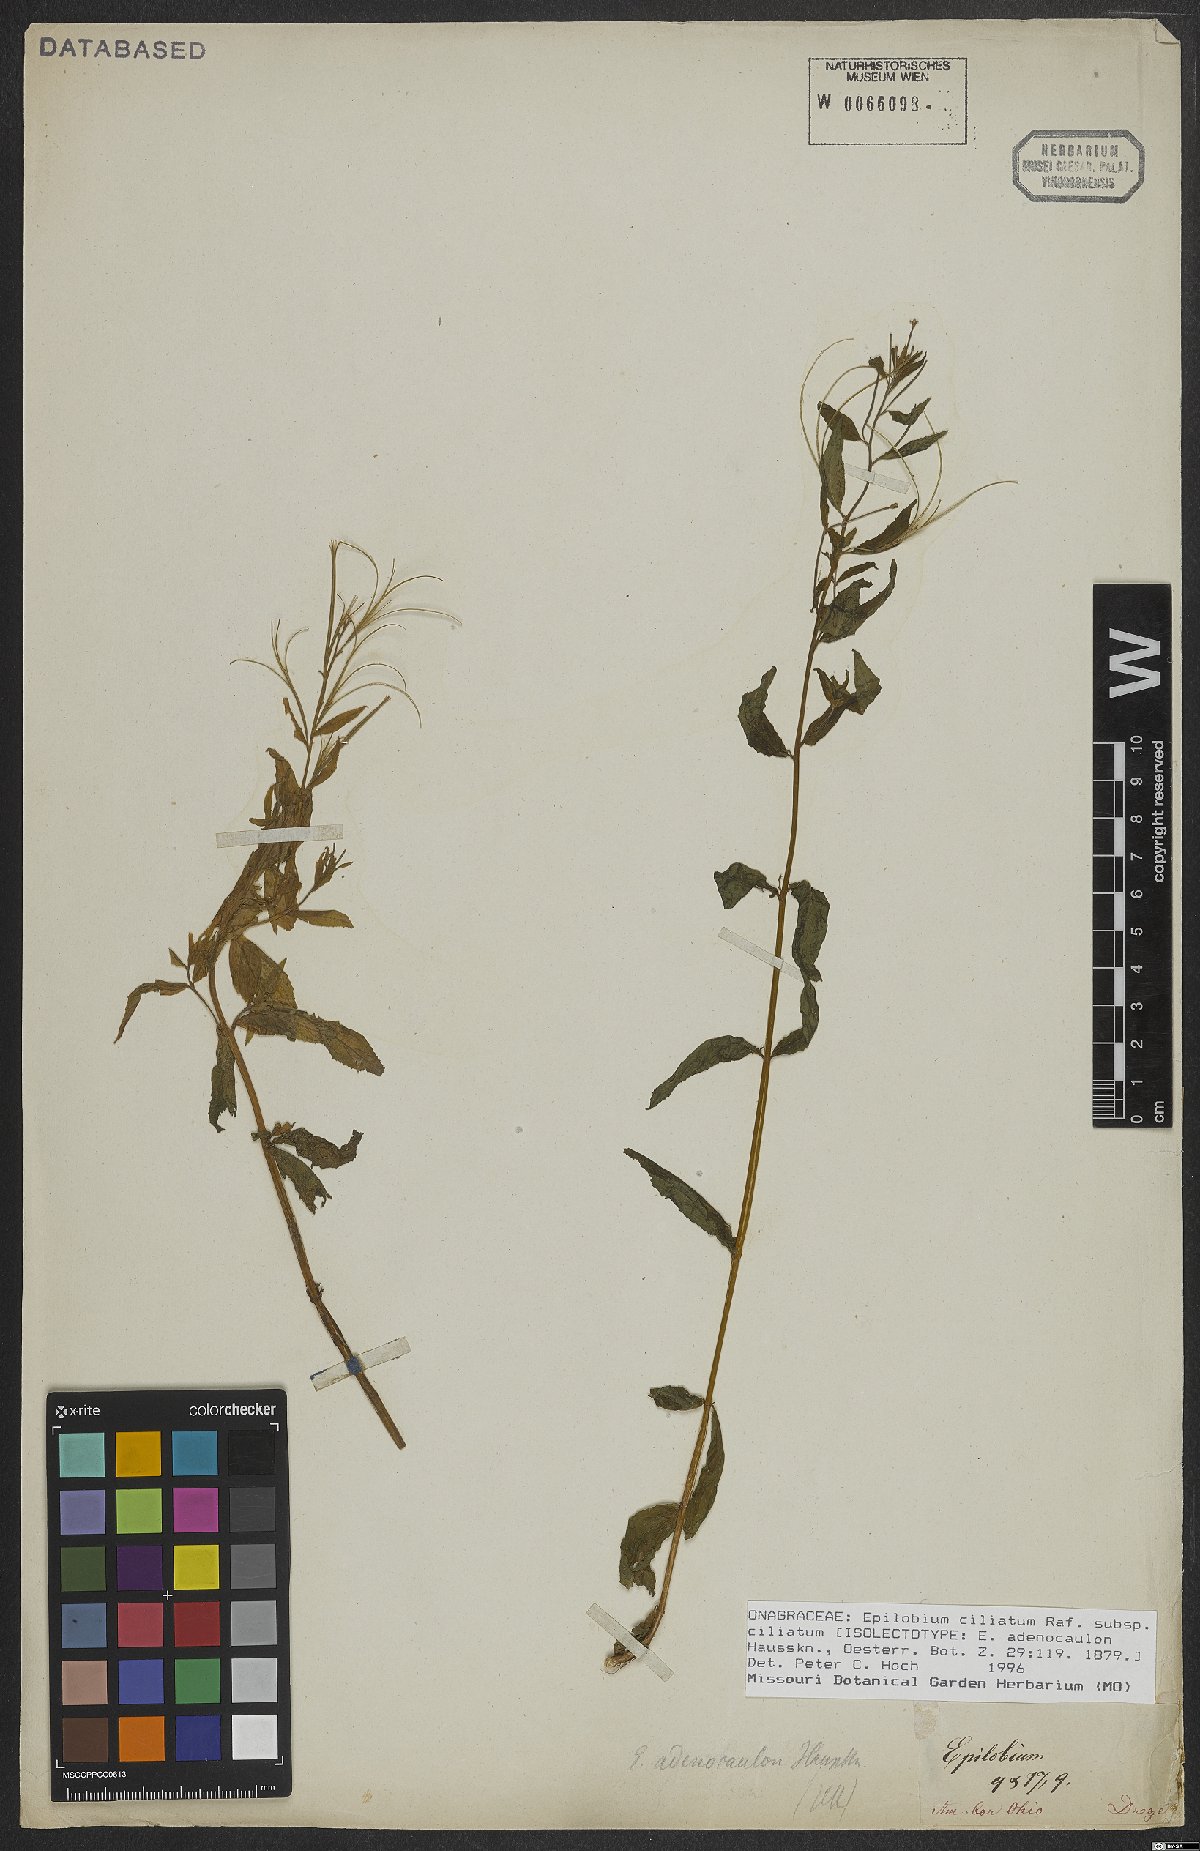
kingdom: Plantae
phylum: Tracheophyta
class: Magnoliopsida
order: Myrtales
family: Onagraceae
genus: Epilobium
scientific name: Epilobium ciliatum
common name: American willowherb
